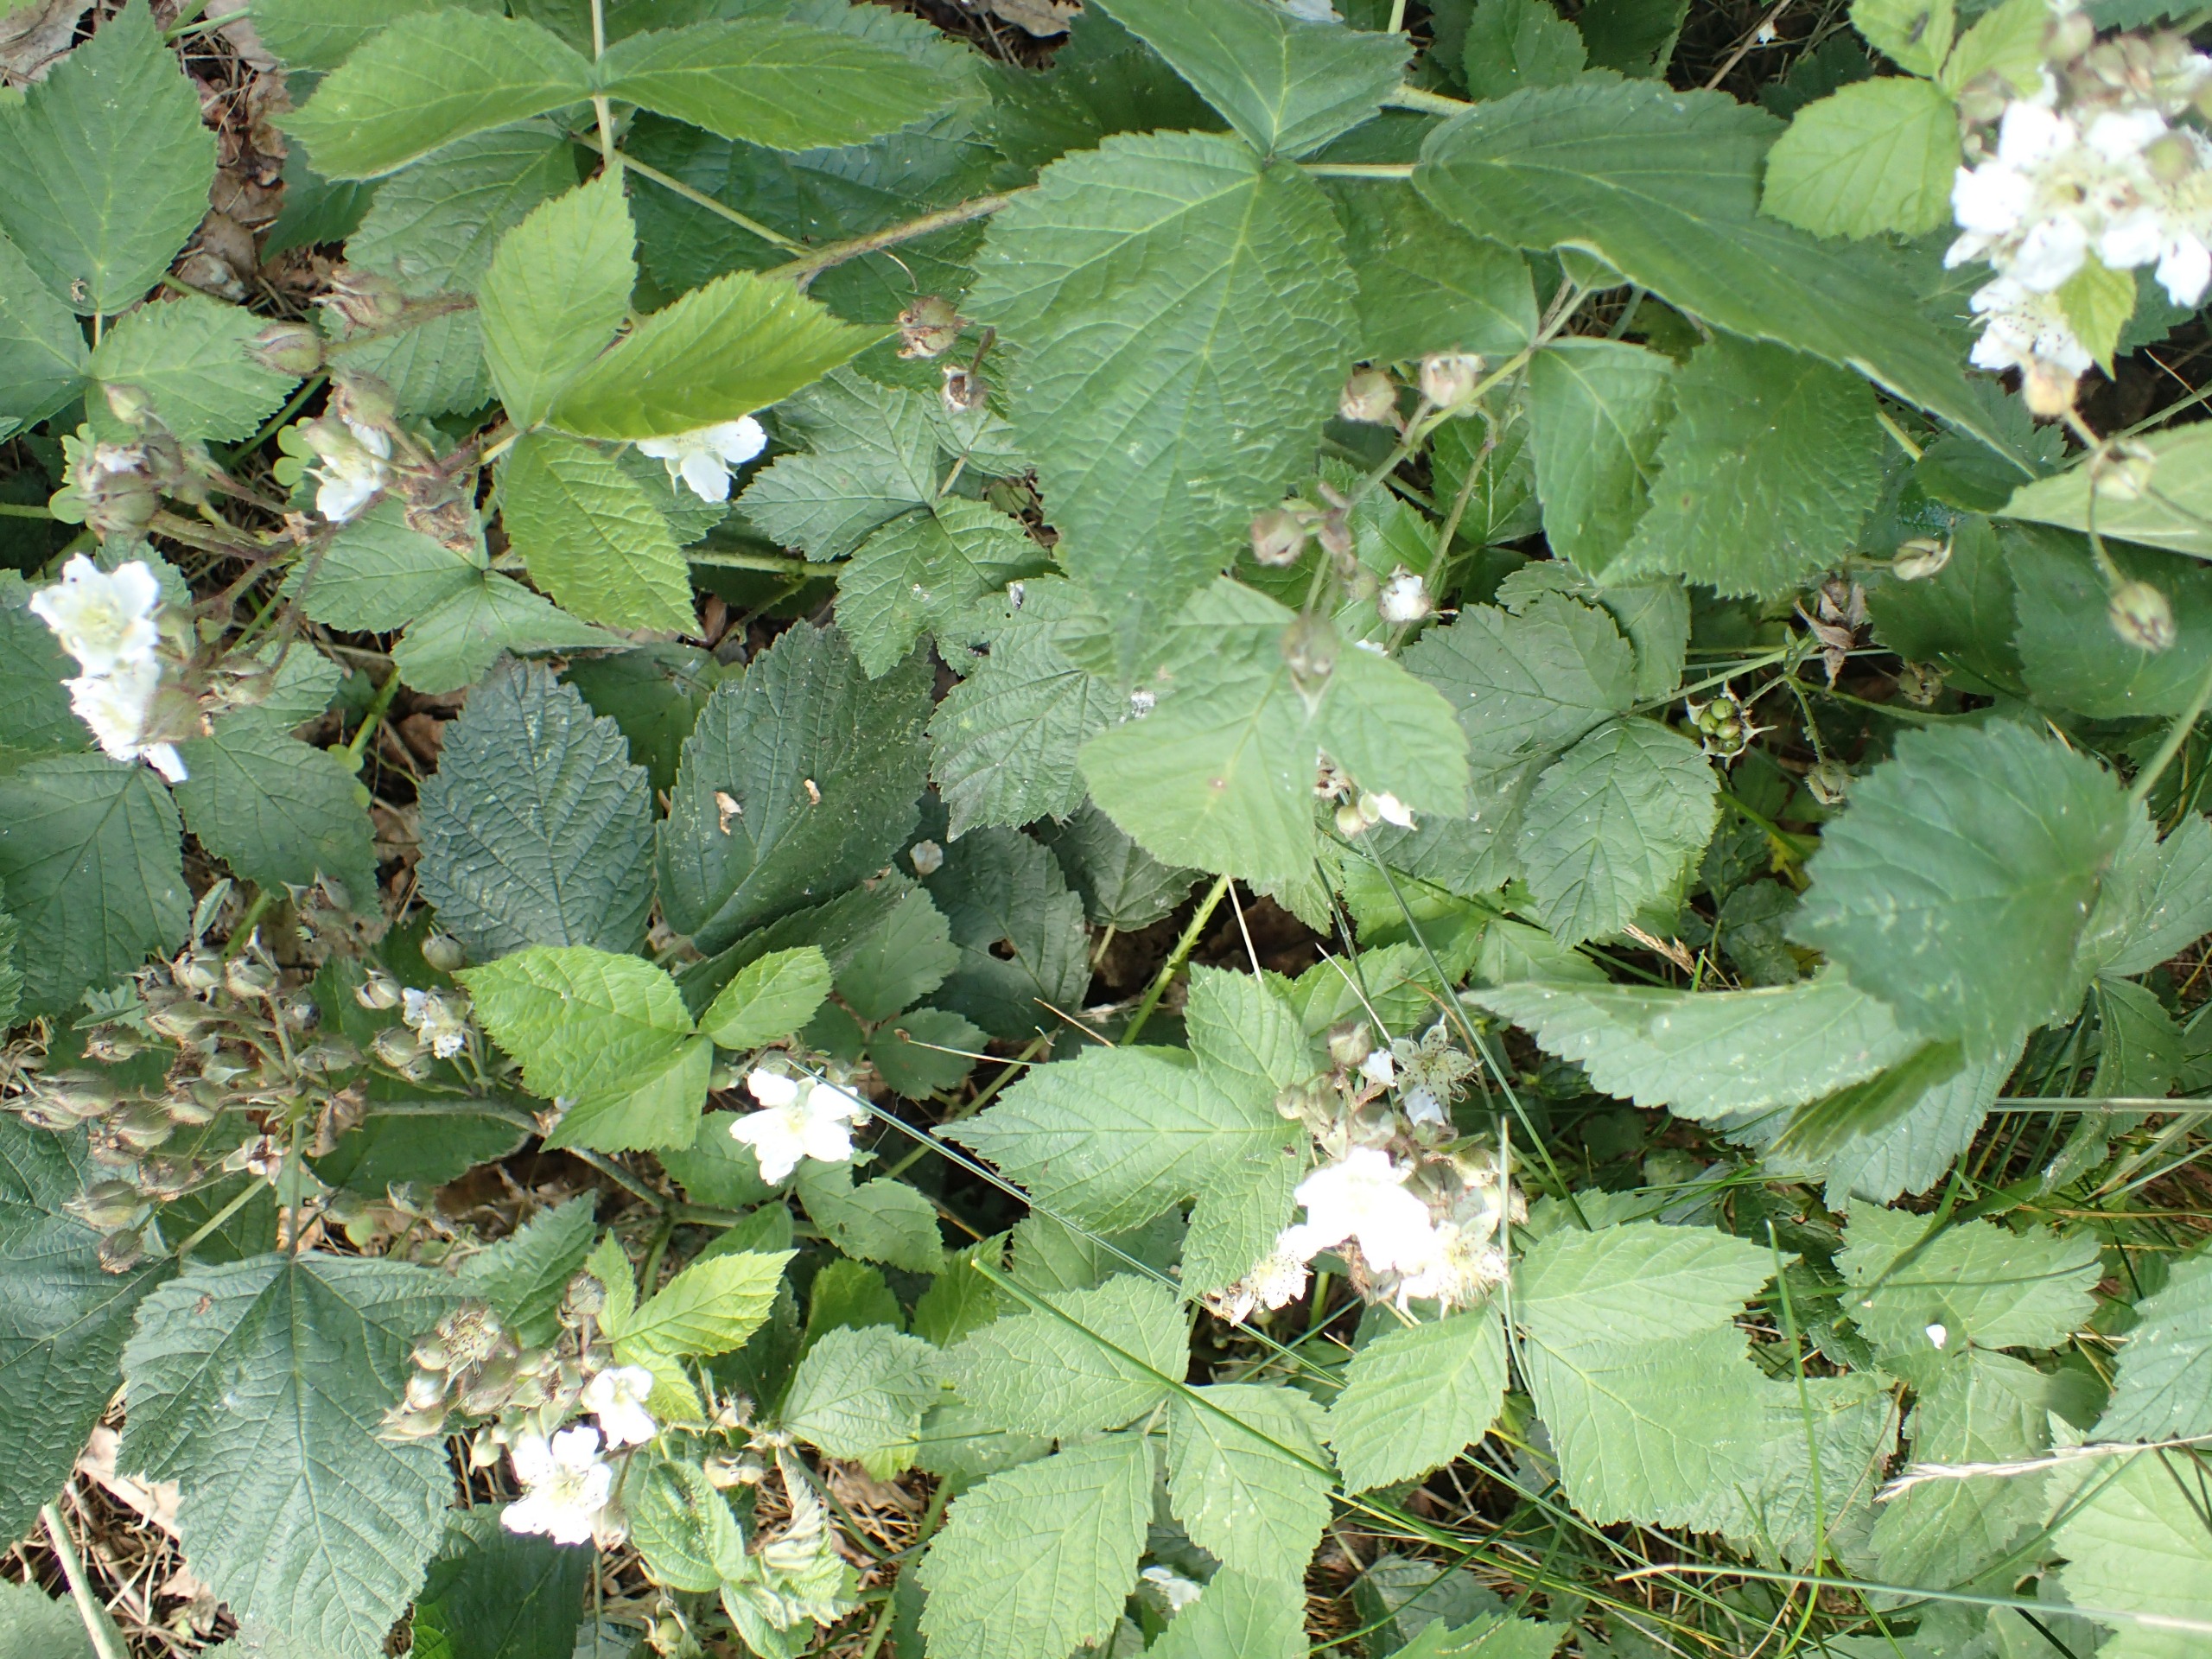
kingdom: Plantae
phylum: Tracheophyta
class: Magnoliopsida
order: Rosales
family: Rosaceae
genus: Rubus
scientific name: Rubus caesius
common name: Korbær
